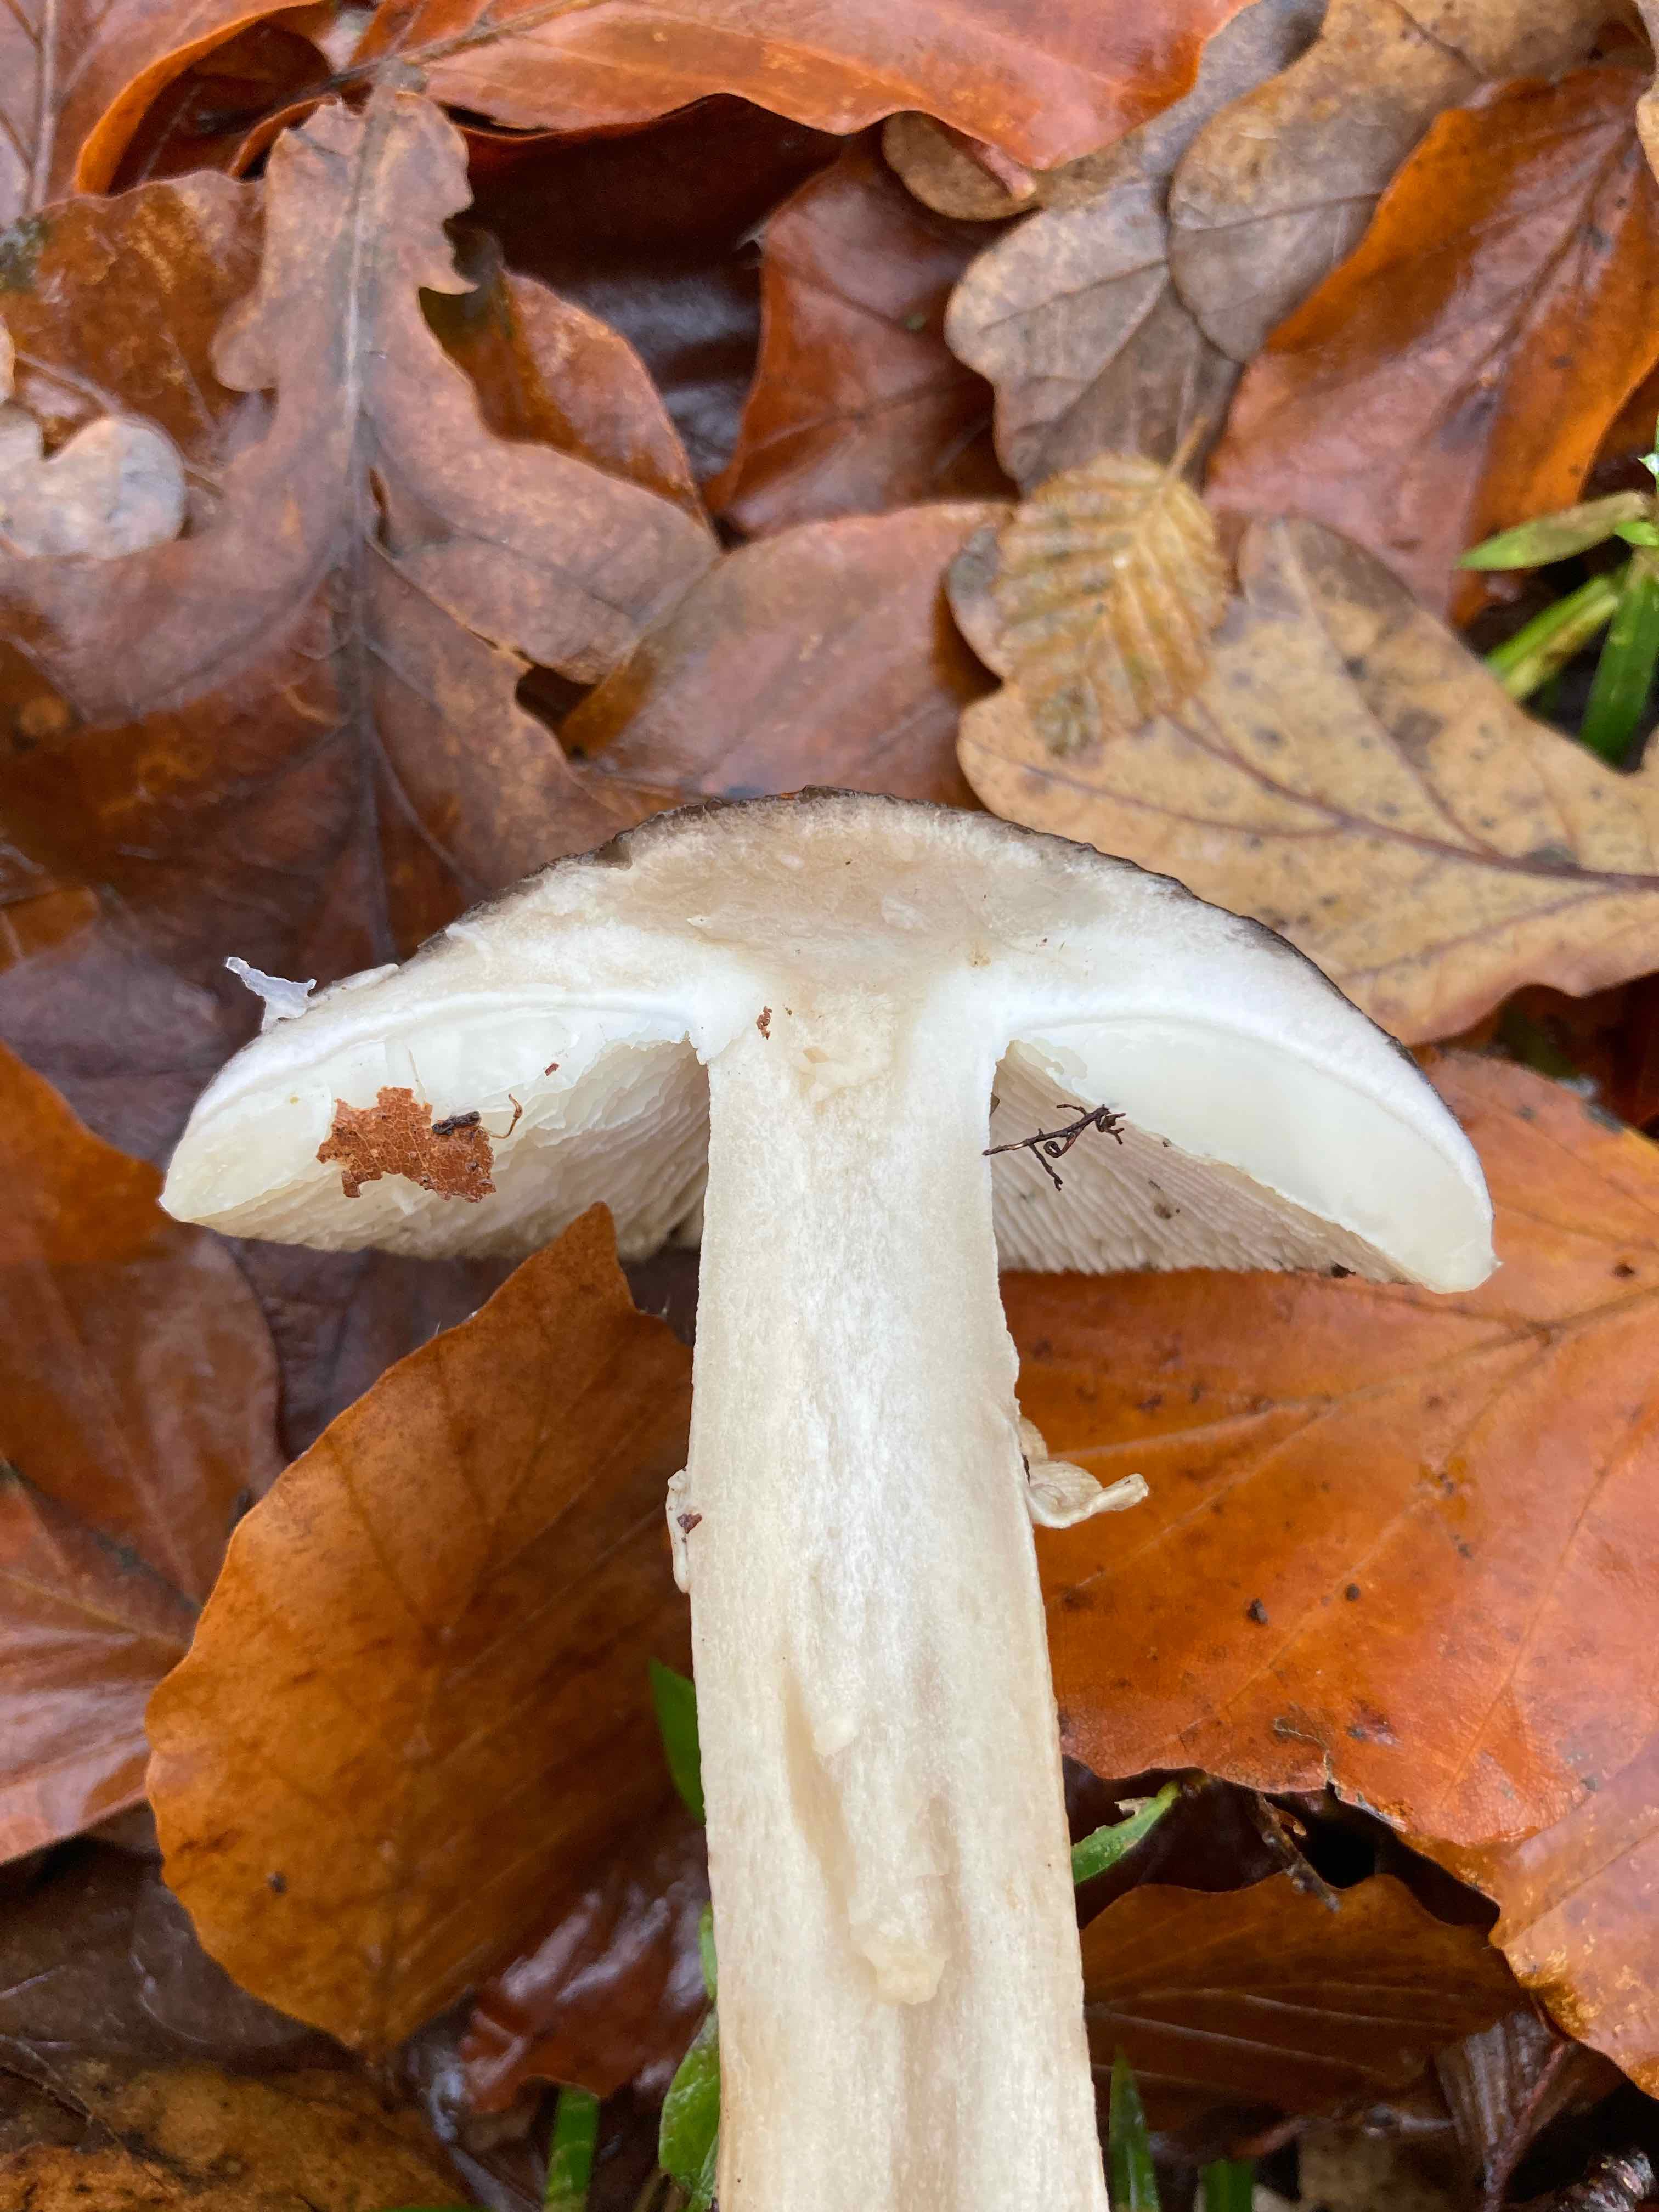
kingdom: Fungi
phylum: Basidiomycota
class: Agaricomycetes
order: Agaricales
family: Amanitaceae
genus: Amanita
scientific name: Amanita
